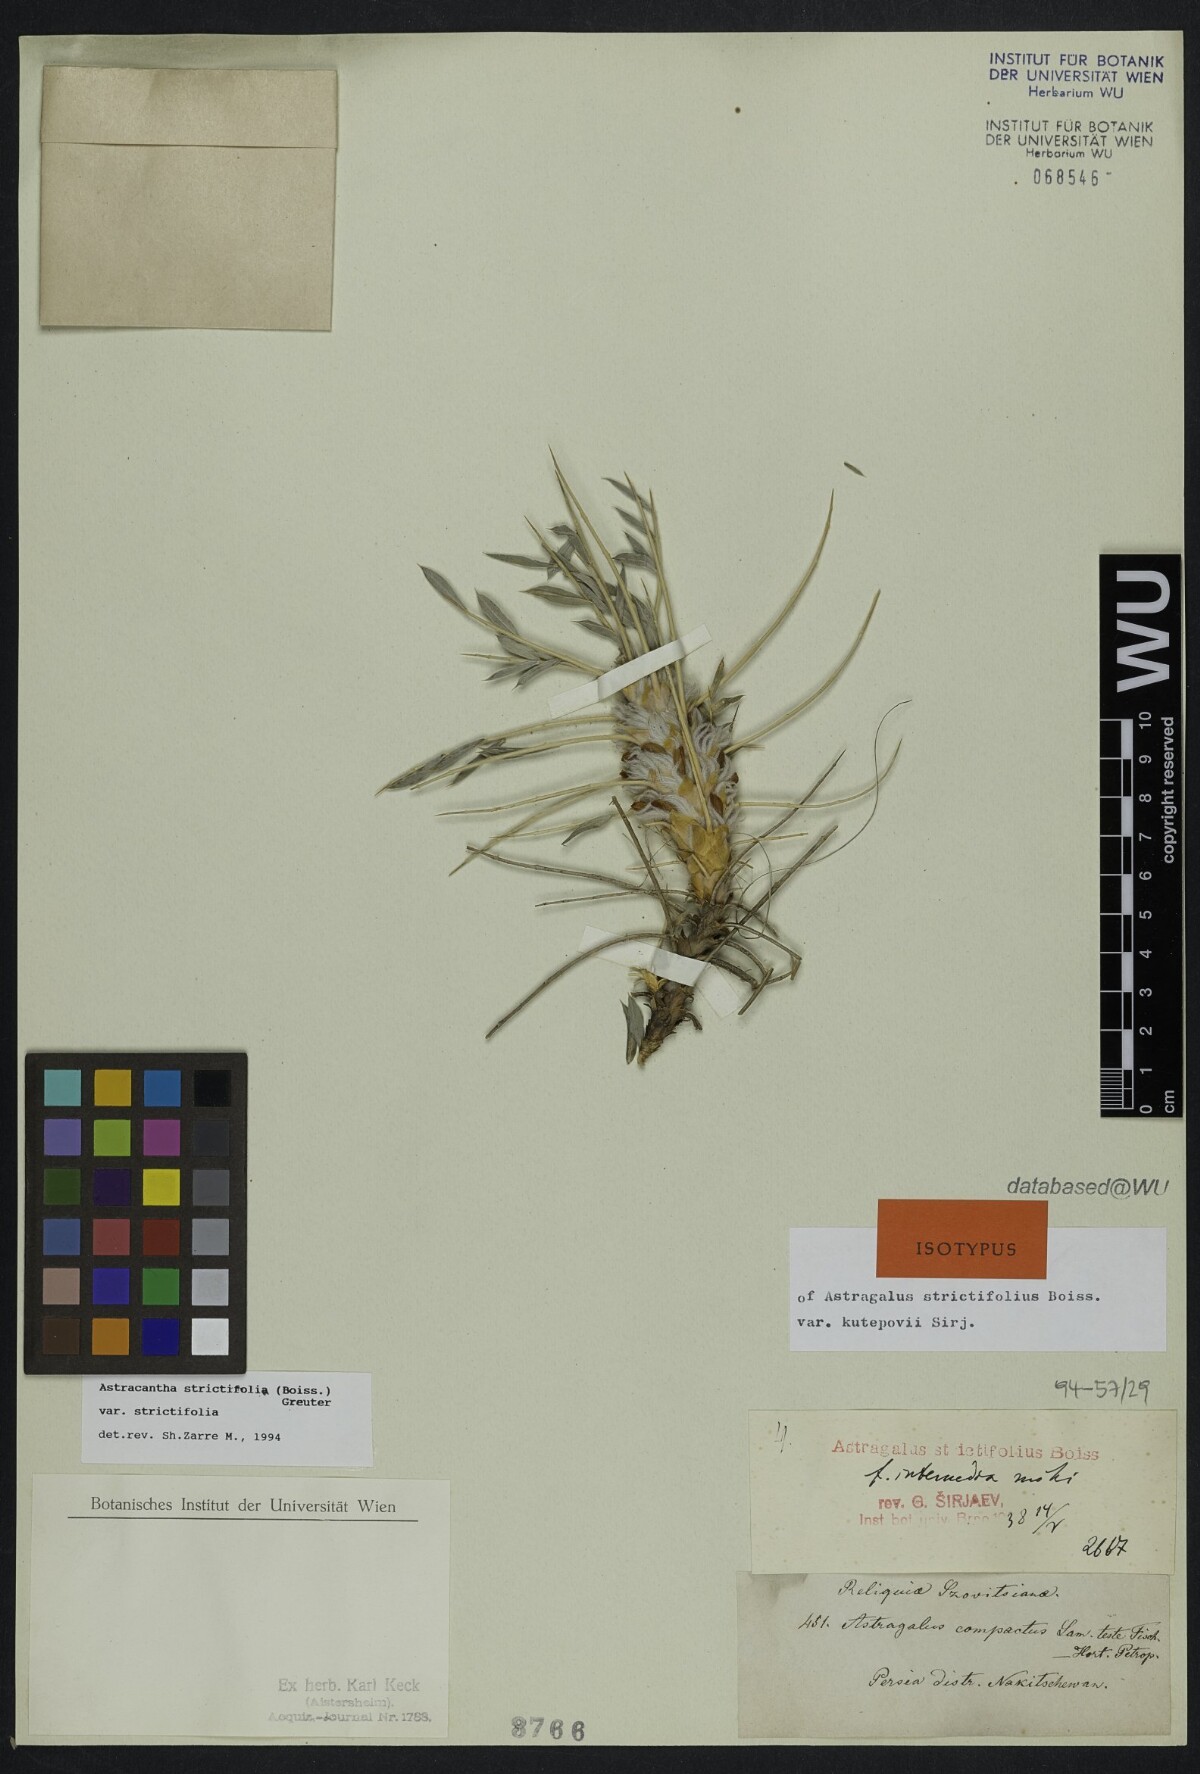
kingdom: Plantae
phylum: Tracheophyta
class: Magnoliopsida
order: Fabales
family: Fabaceae
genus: Astragalus
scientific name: Astragalus compactus
